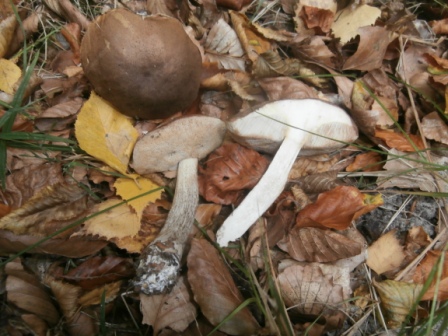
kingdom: Fungi
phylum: Basidiomycota
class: Agaricomycetes
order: Boletales
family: Boletaceae
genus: Leccinum
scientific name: Leccinum scabrum
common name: brun skælrørhat
